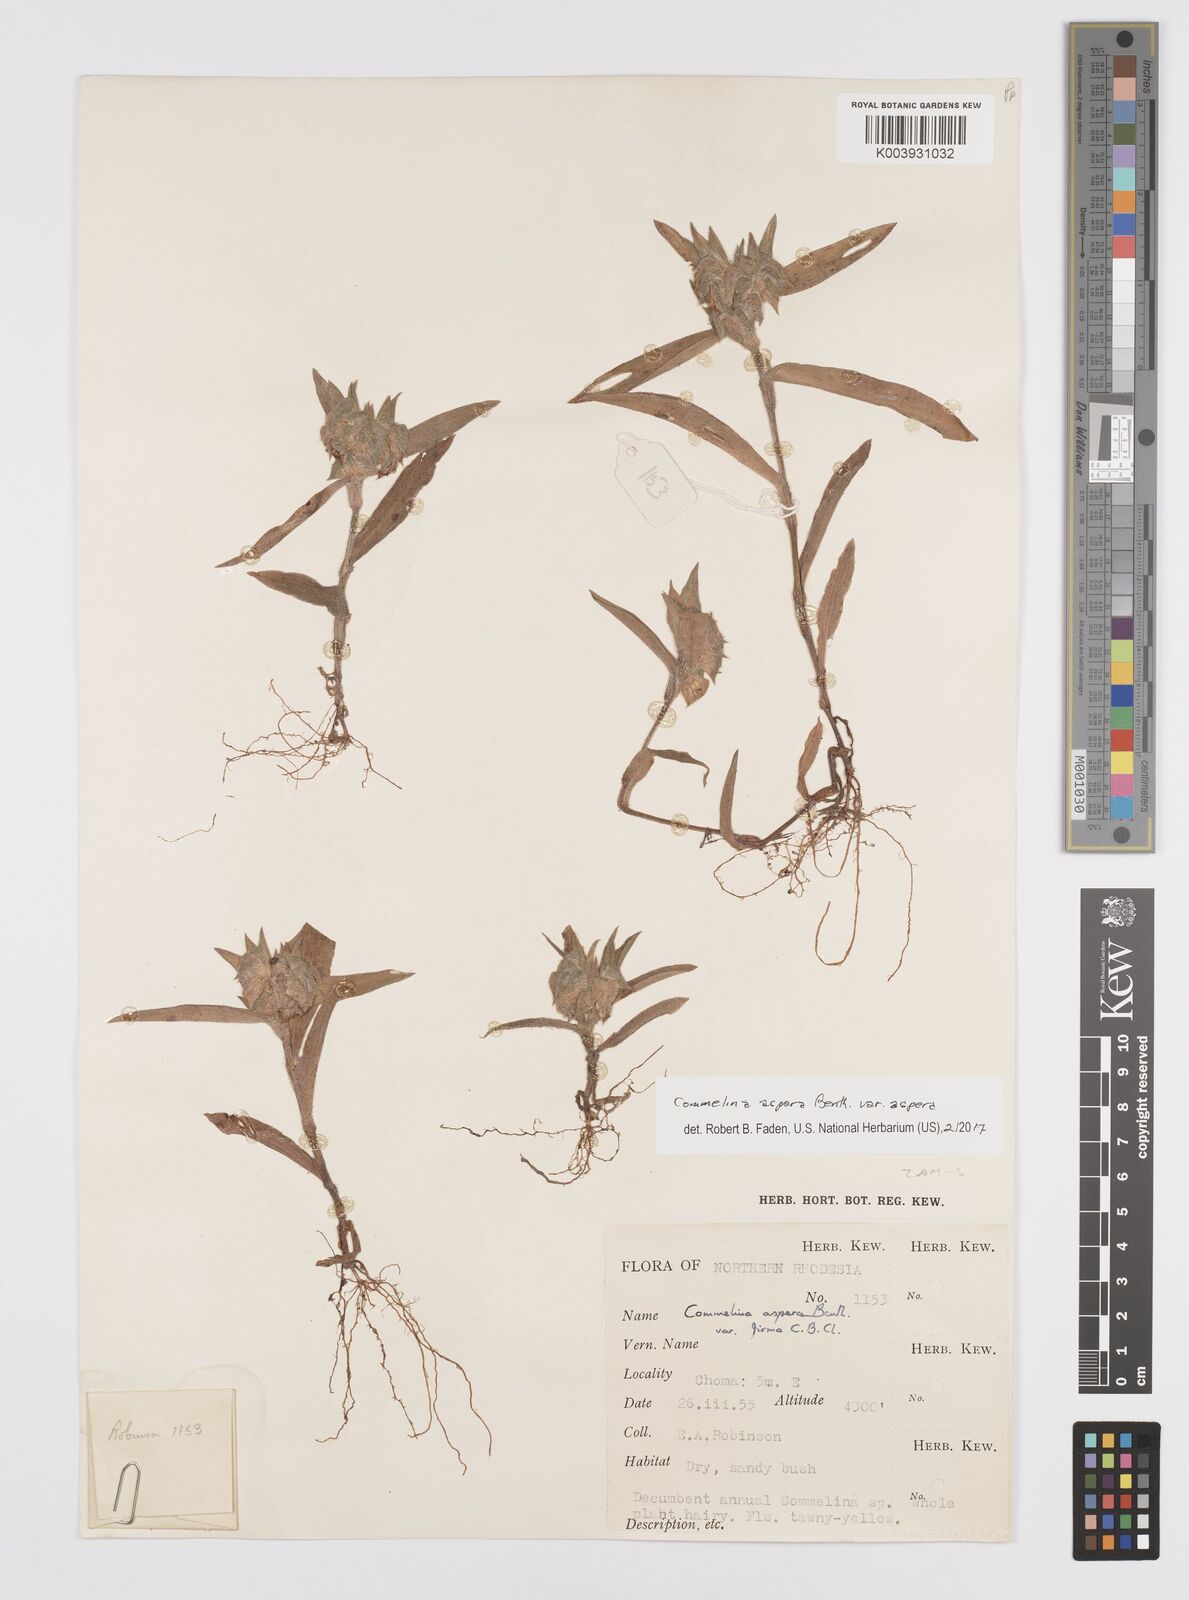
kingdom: Plantae
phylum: Tracheophyta
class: Liliopsida
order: Commelinales
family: Commelinaceae
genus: Commelina
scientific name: Commelina aspera
